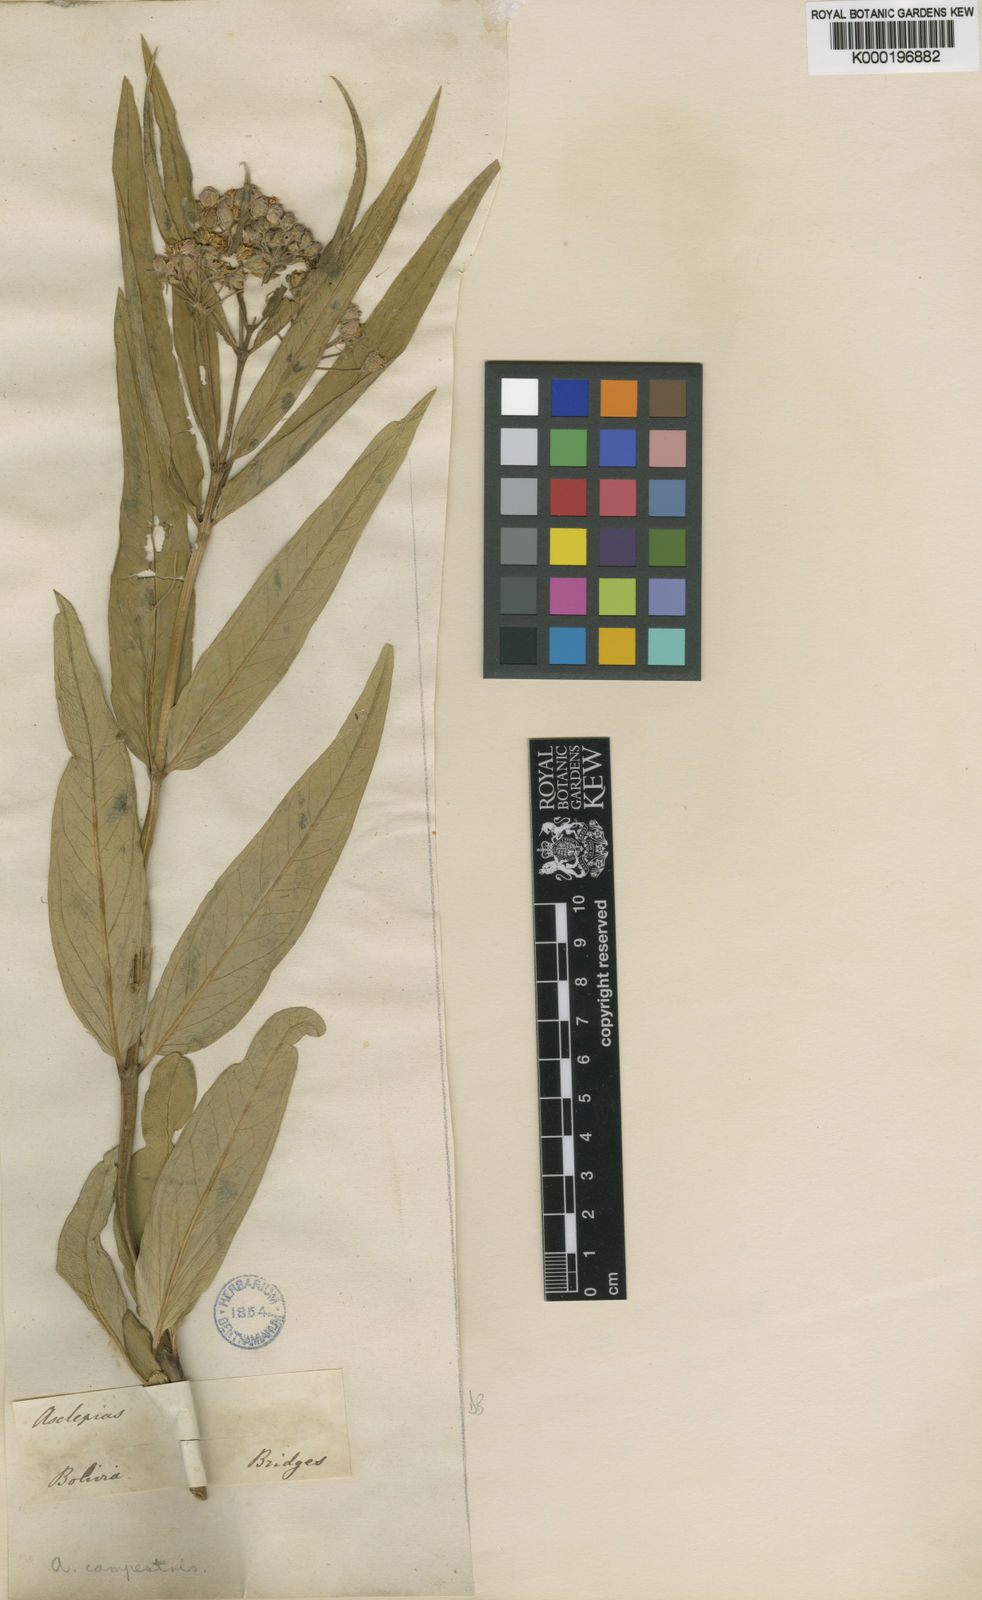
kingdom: Plantae
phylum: Tracheophyta
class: Magnoliopsida
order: Gentianales
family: Apocynaceae
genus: Asclepias
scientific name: Asclepias mellodora
